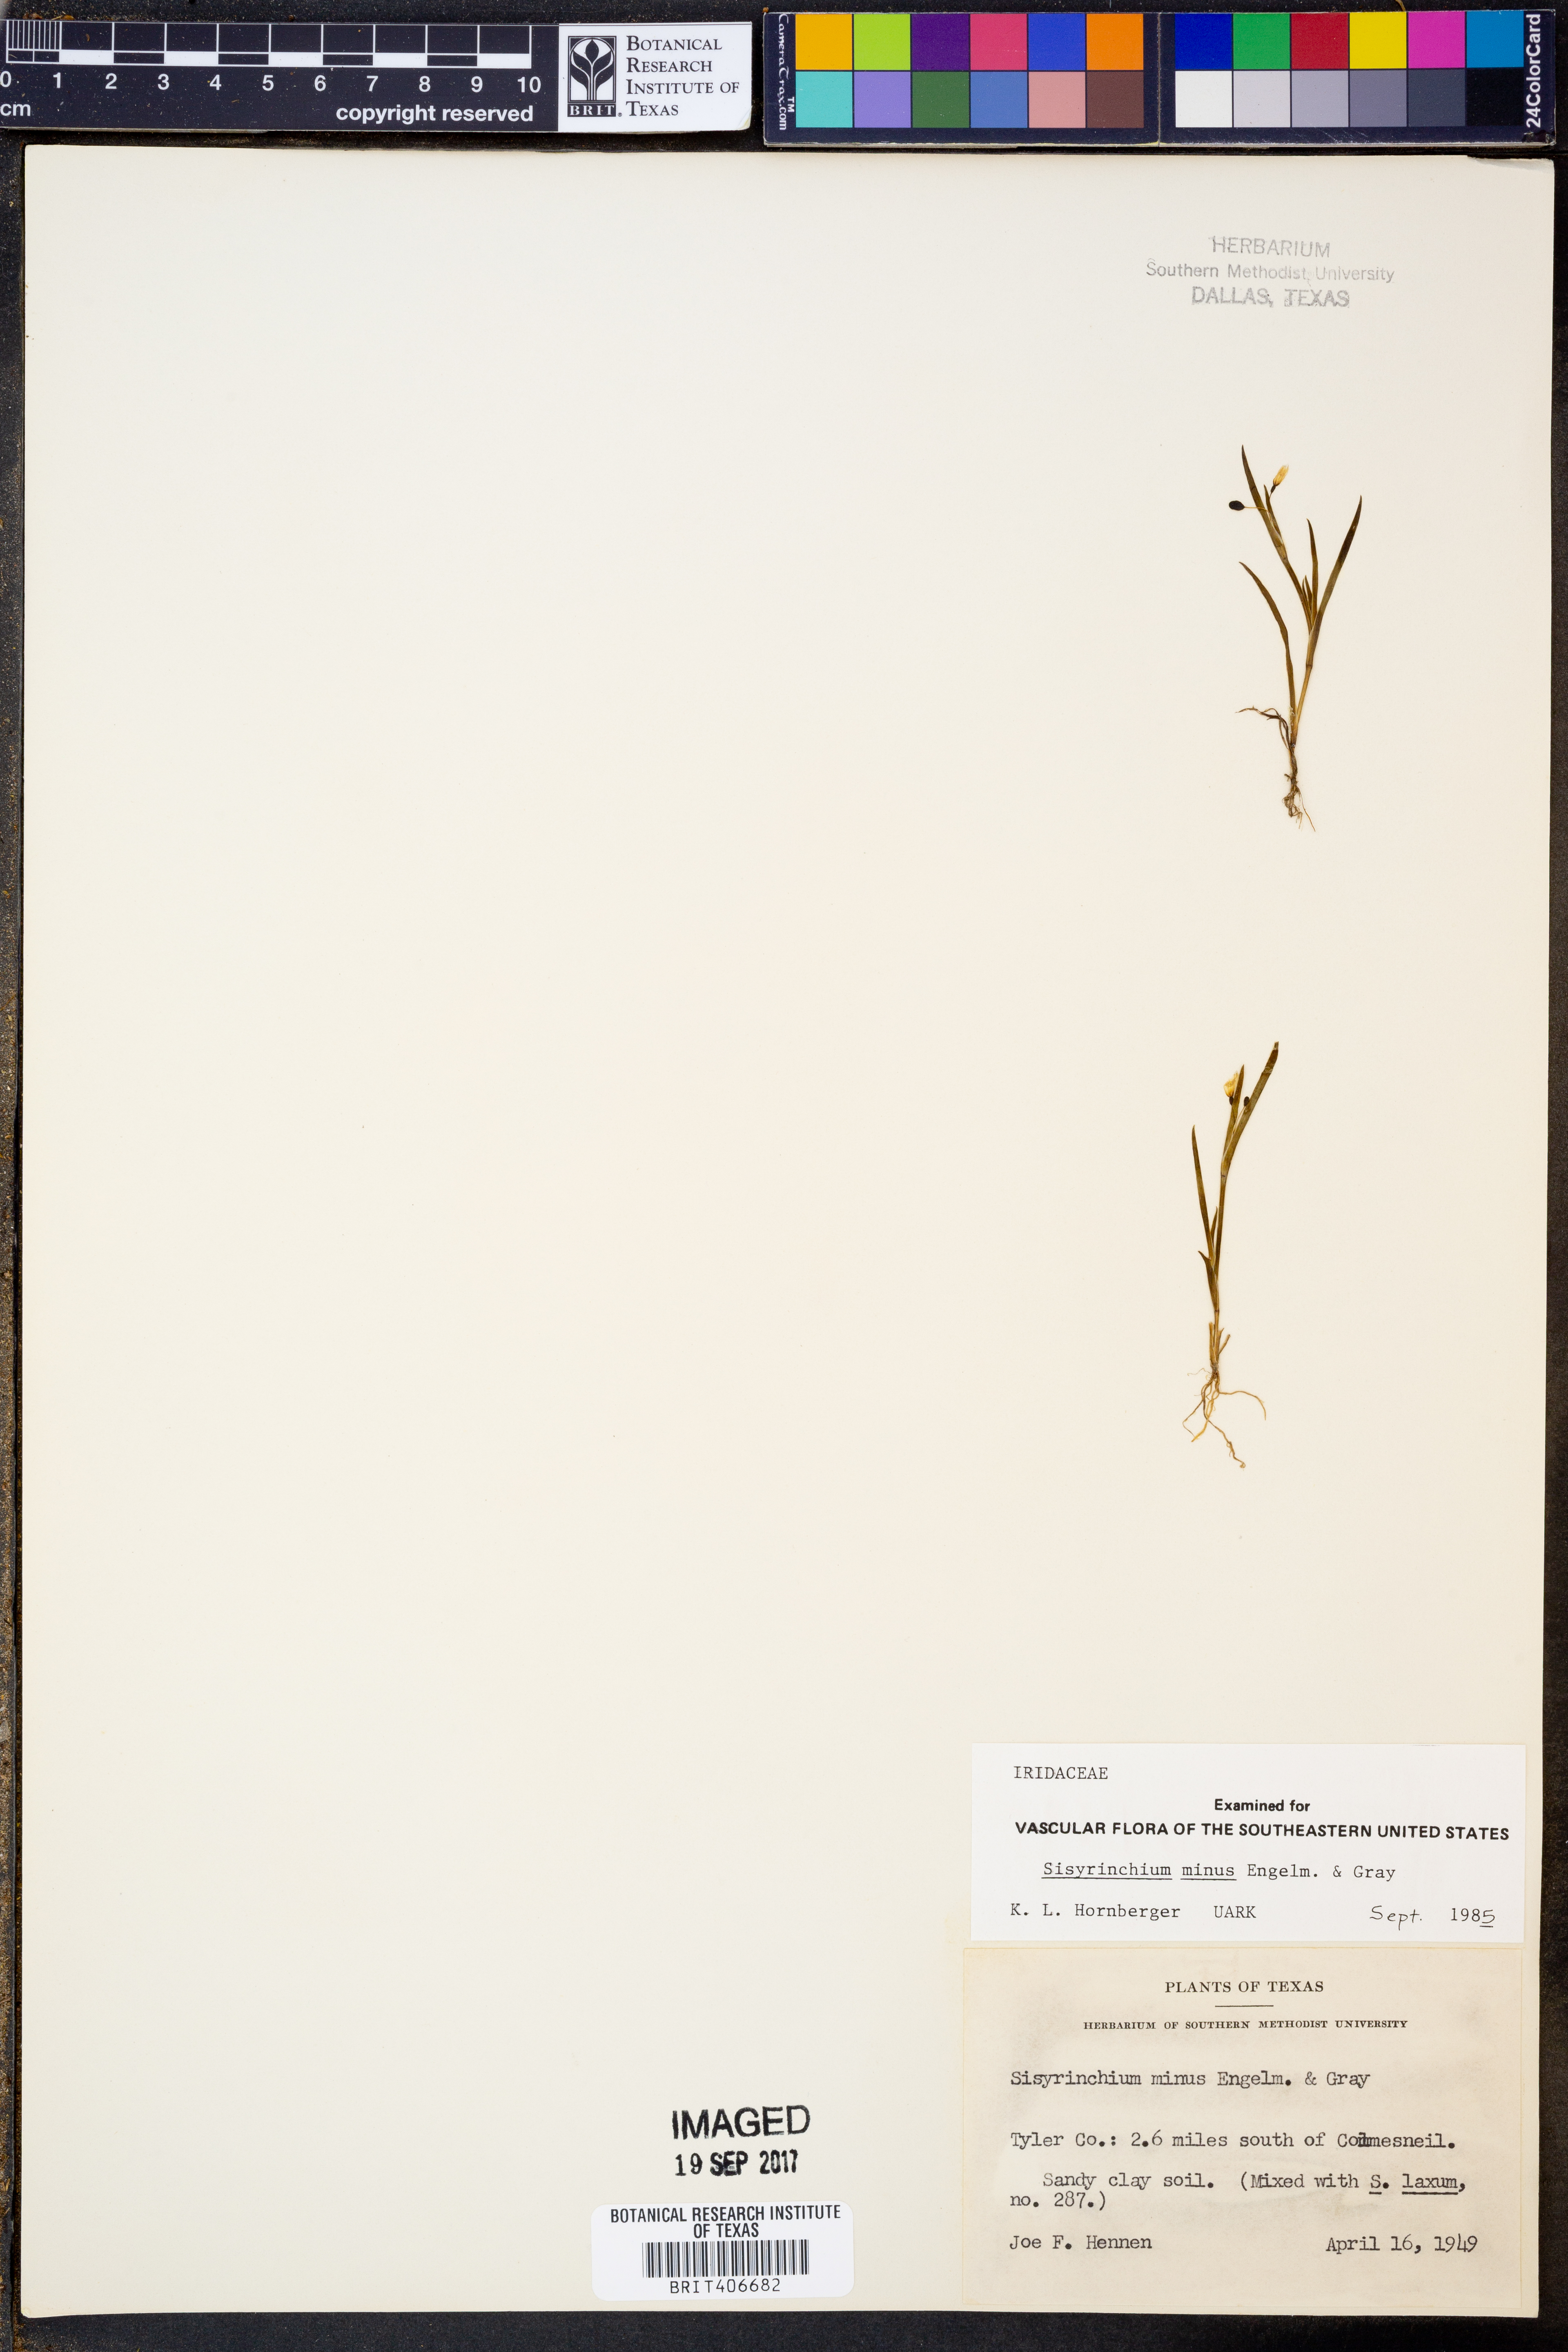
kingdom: Plantae
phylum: Tracheophyta
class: Liliopsida
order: Asparagales
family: Iridaceae
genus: Sisyrinchium
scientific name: Sisyrinchium minus
